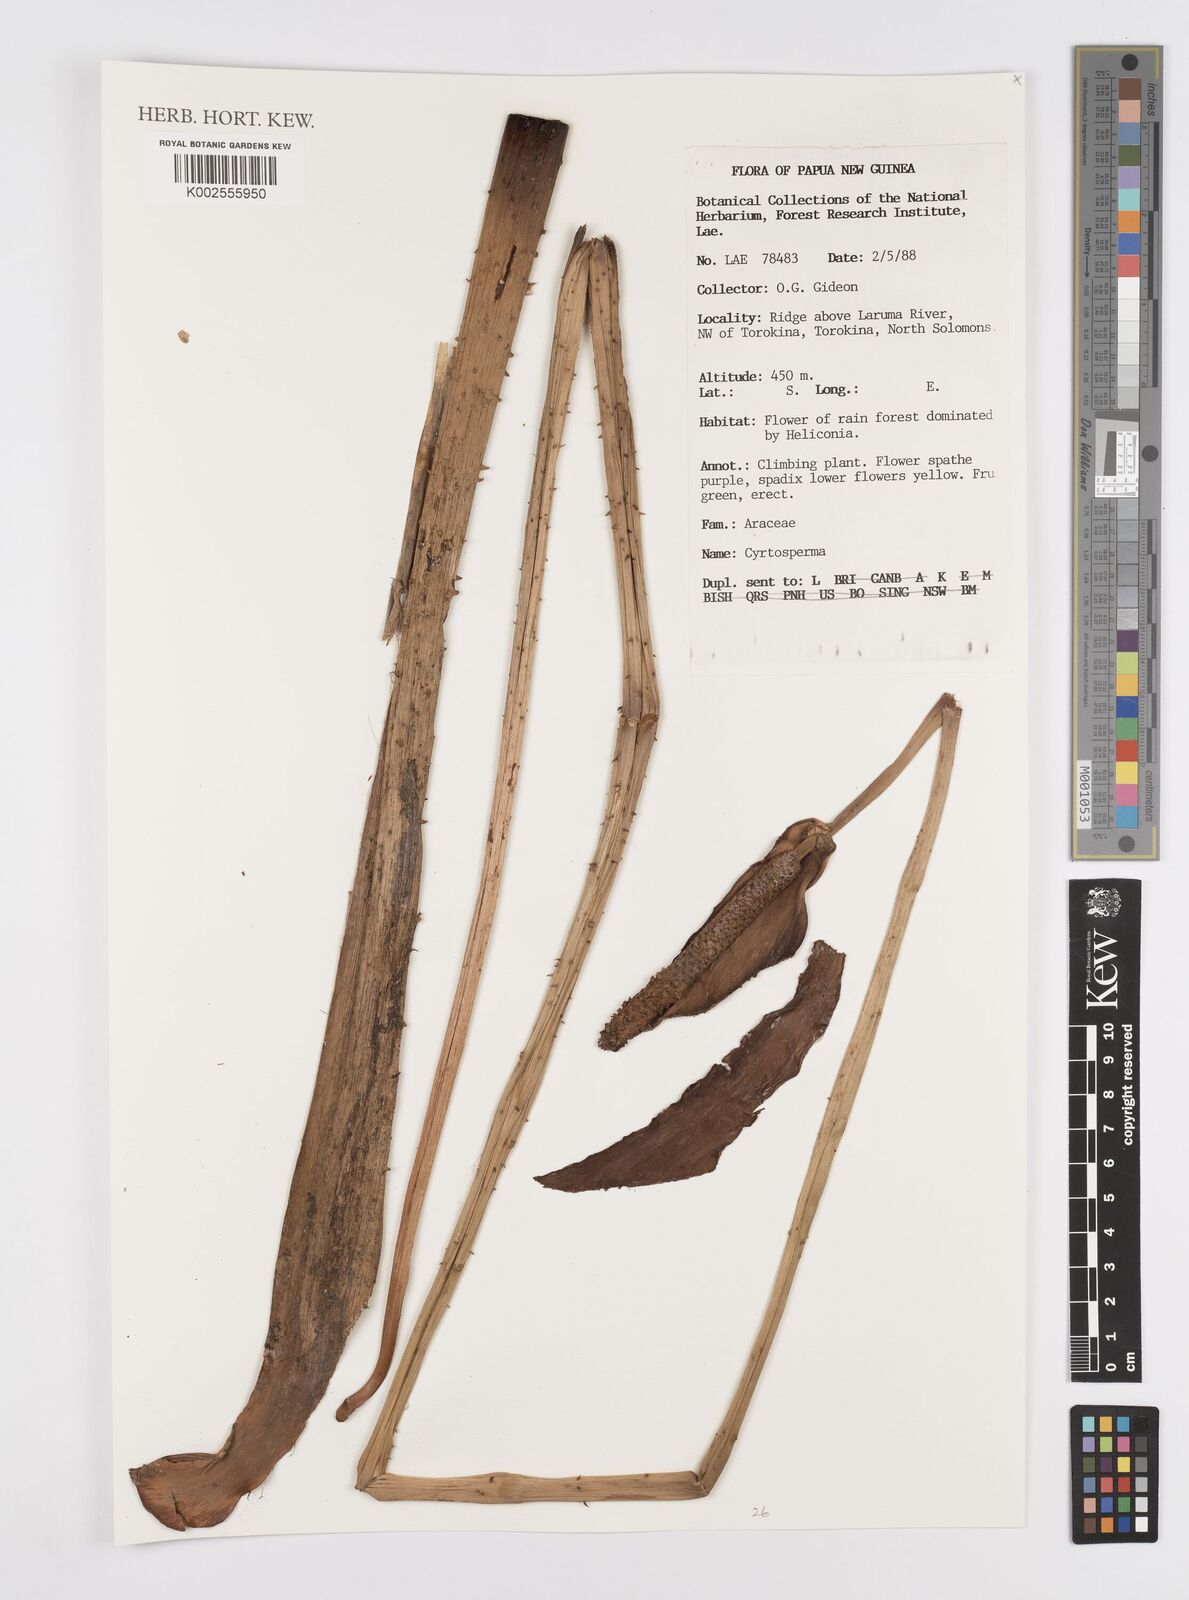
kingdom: Plantae
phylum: Tracheophyta
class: Liliopsida
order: Alismatales
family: Araceae
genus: Cyrtosperma
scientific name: Cyrtosperma
